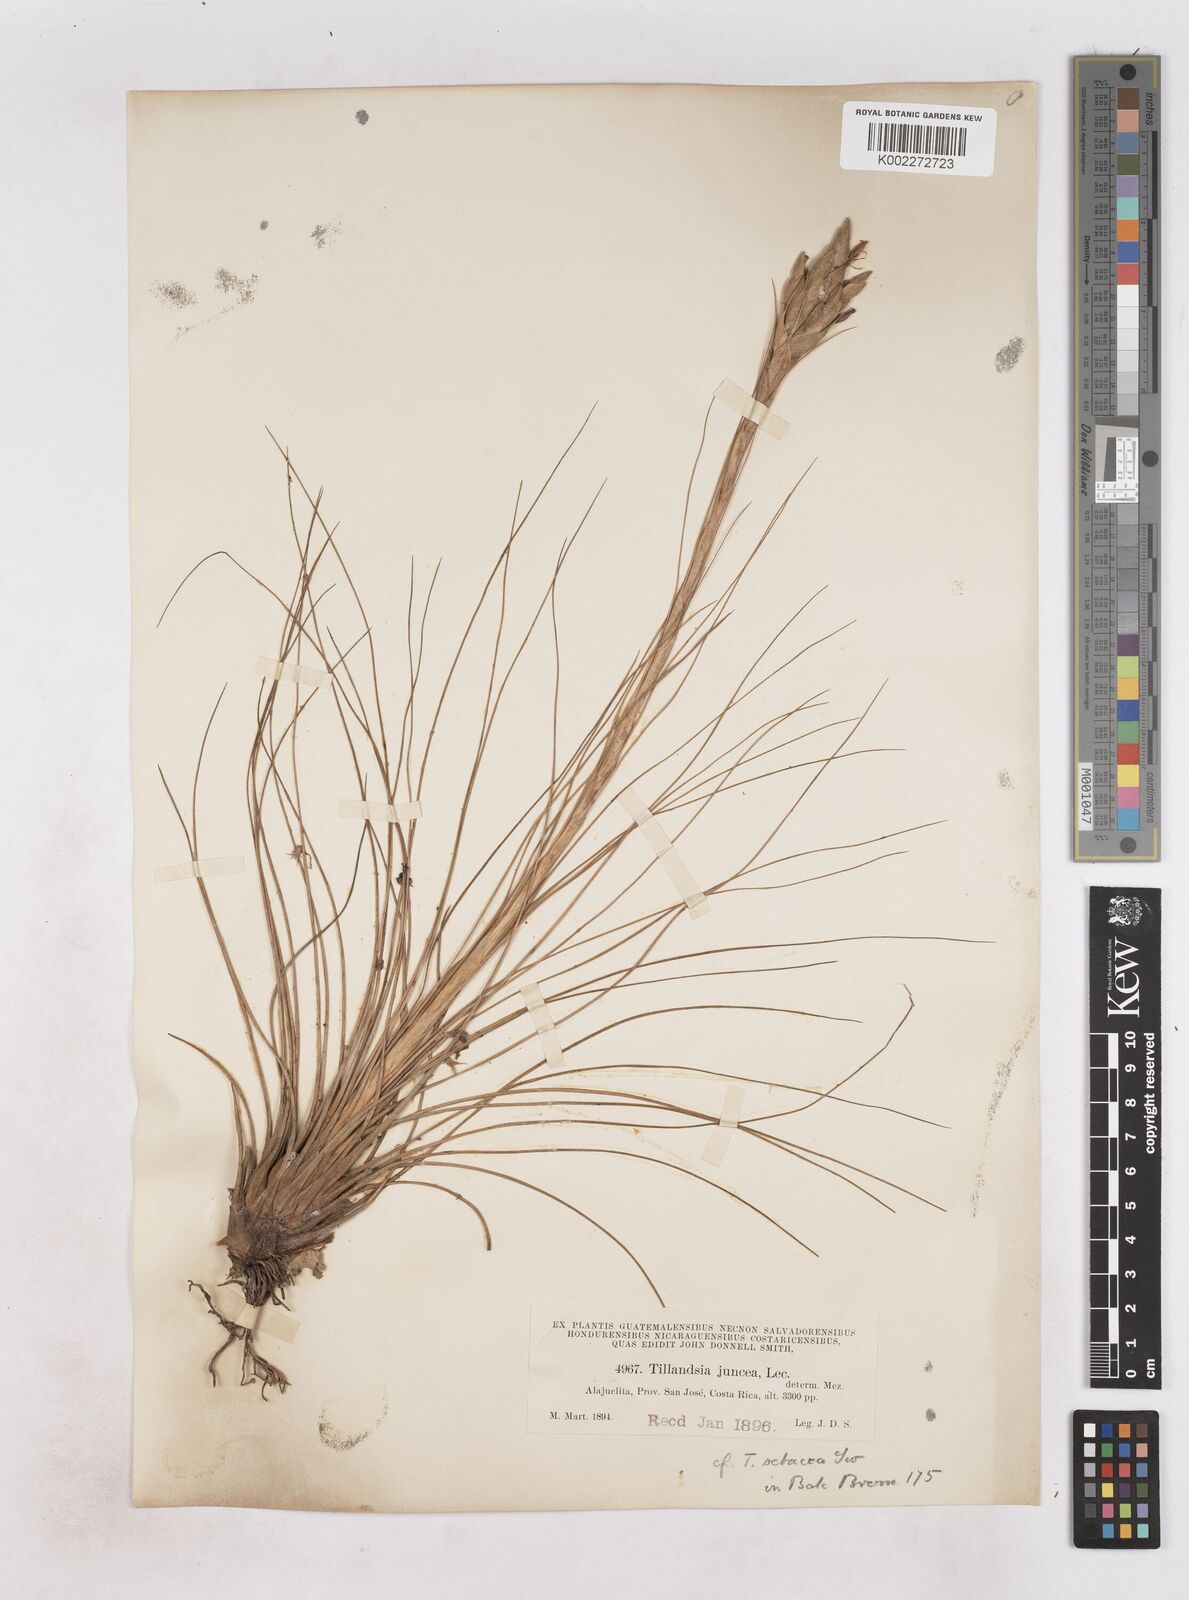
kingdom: Plantae
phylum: Tracheophyta
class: Liliopsida
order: Poales
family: Bromeliaceae
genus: Tillandsia
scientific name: Tillandsia juncea
